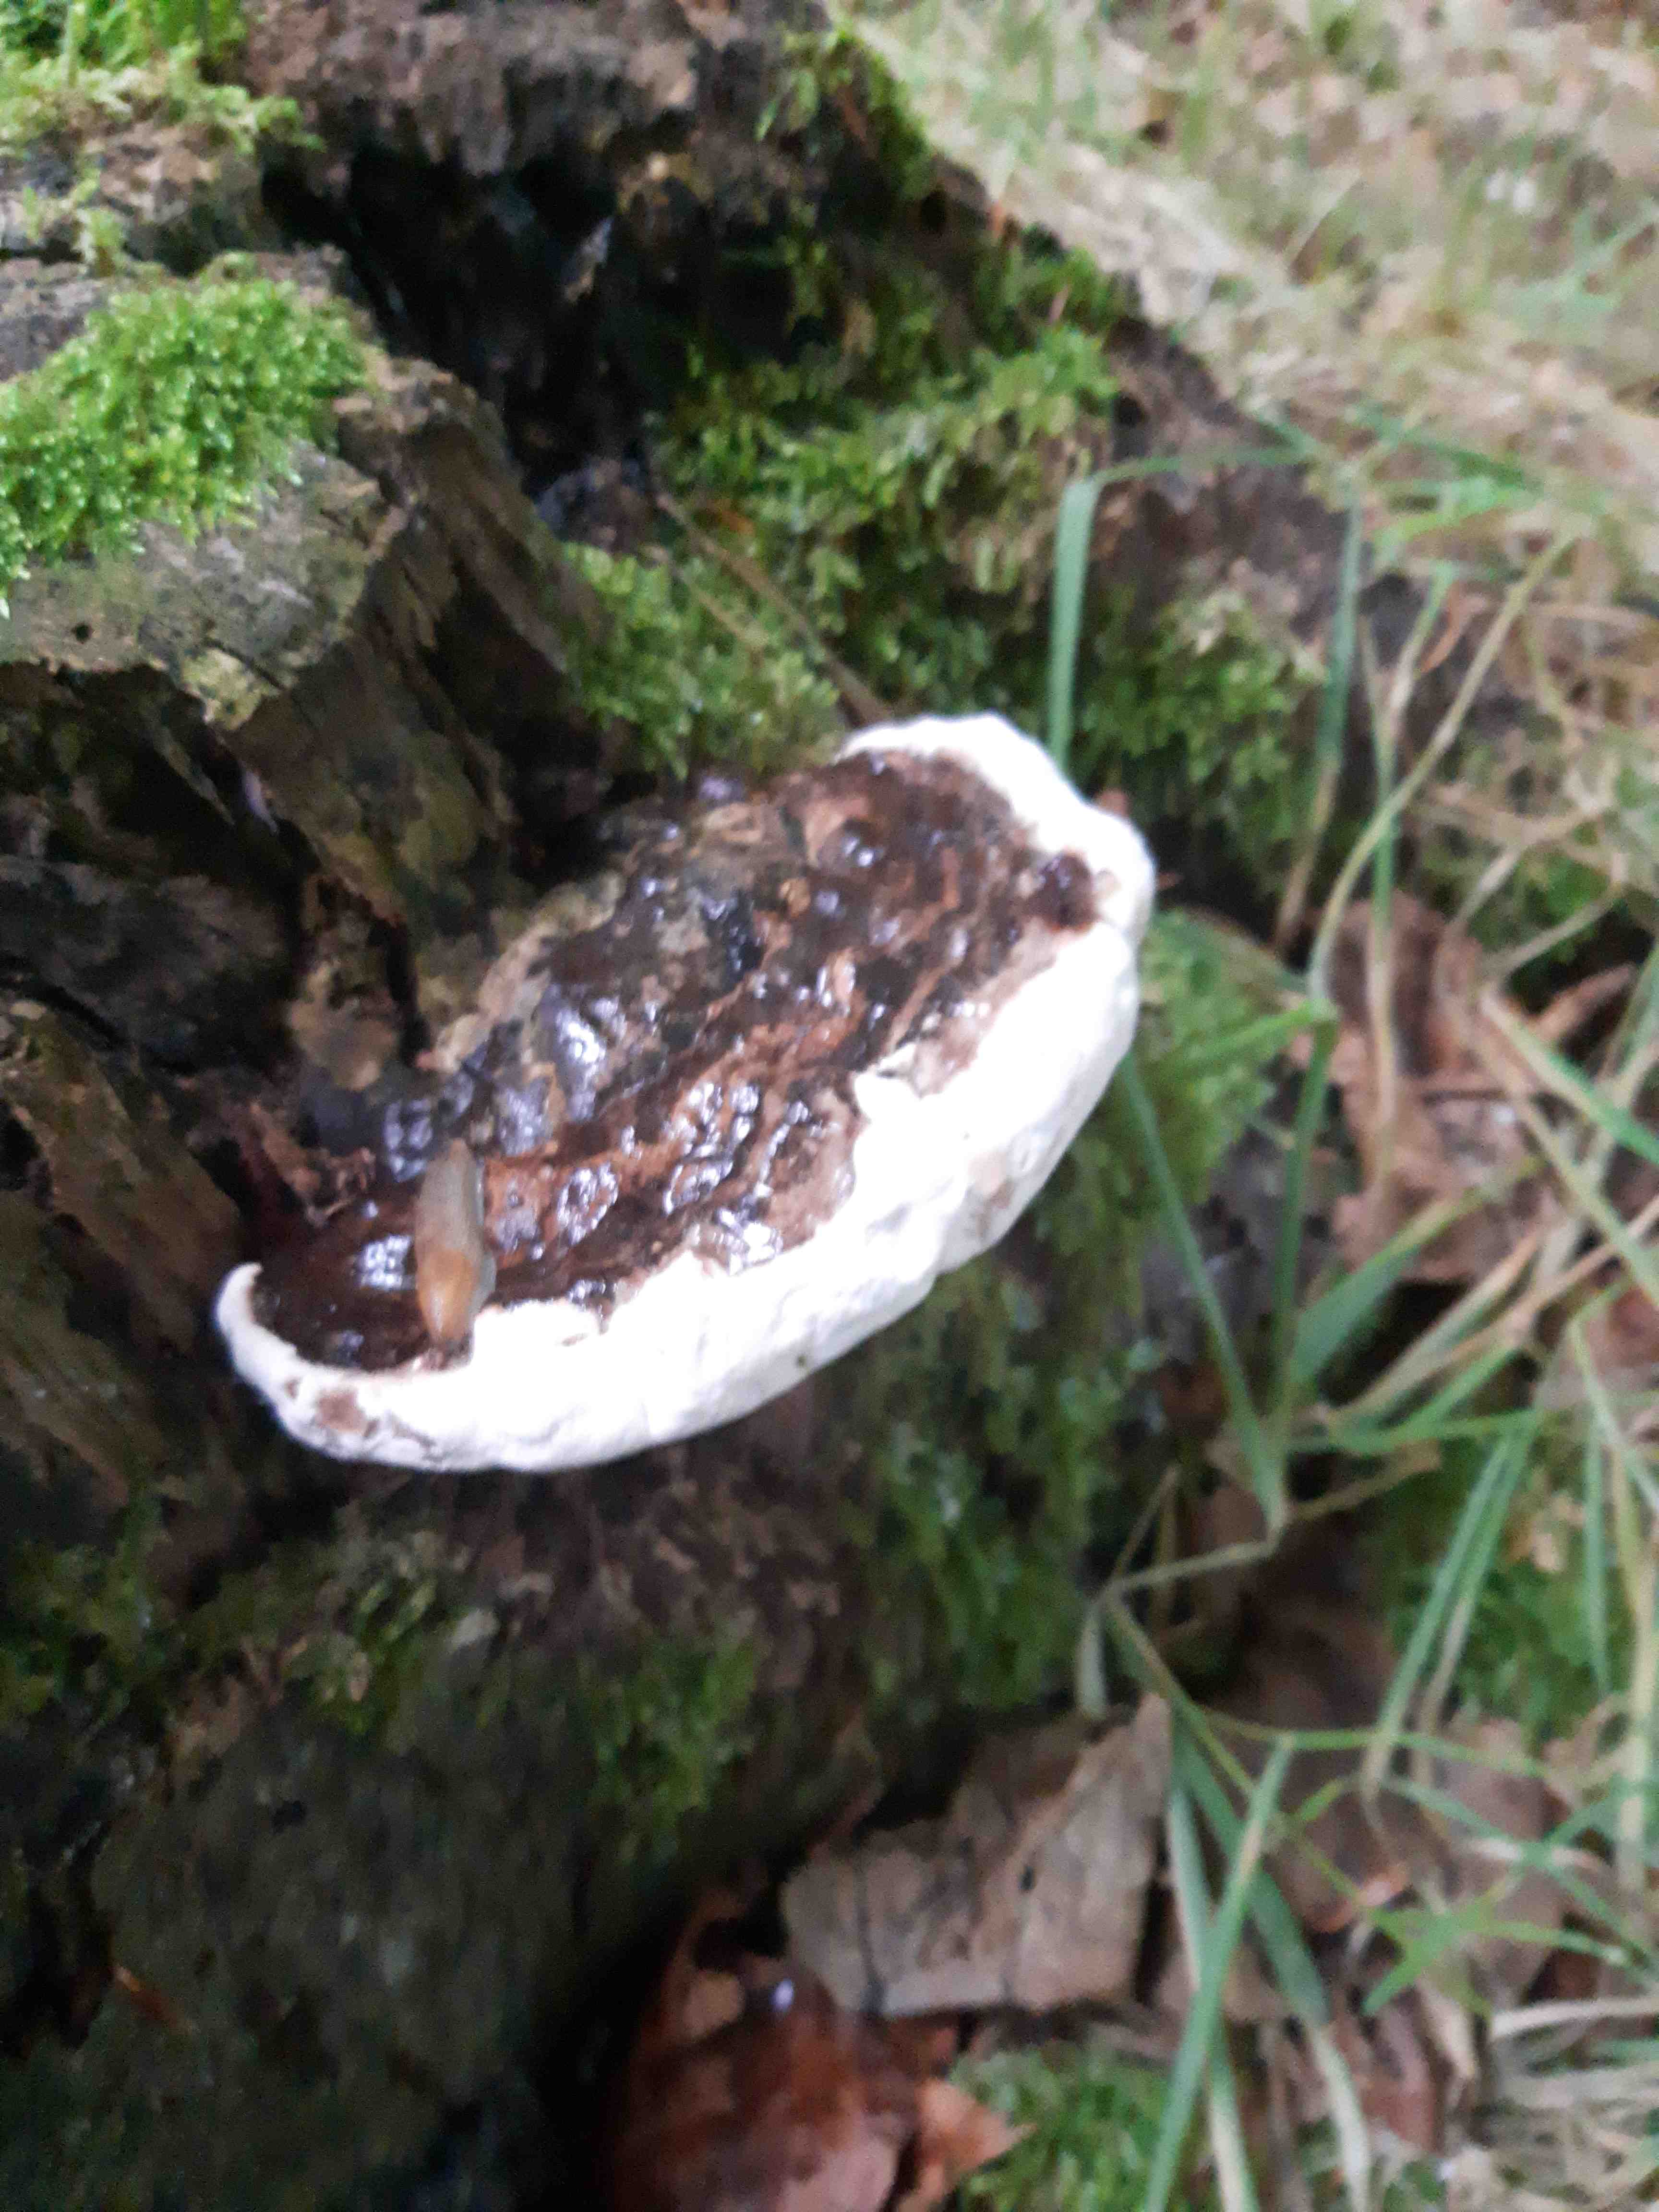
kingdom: Fungi
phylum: Basidiomycota
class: Agaricomycetes
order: Polyporales
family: Polyporaceae
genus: Ganoderma
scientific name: Ganoderma applanatum
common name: flad lakporesvamp
